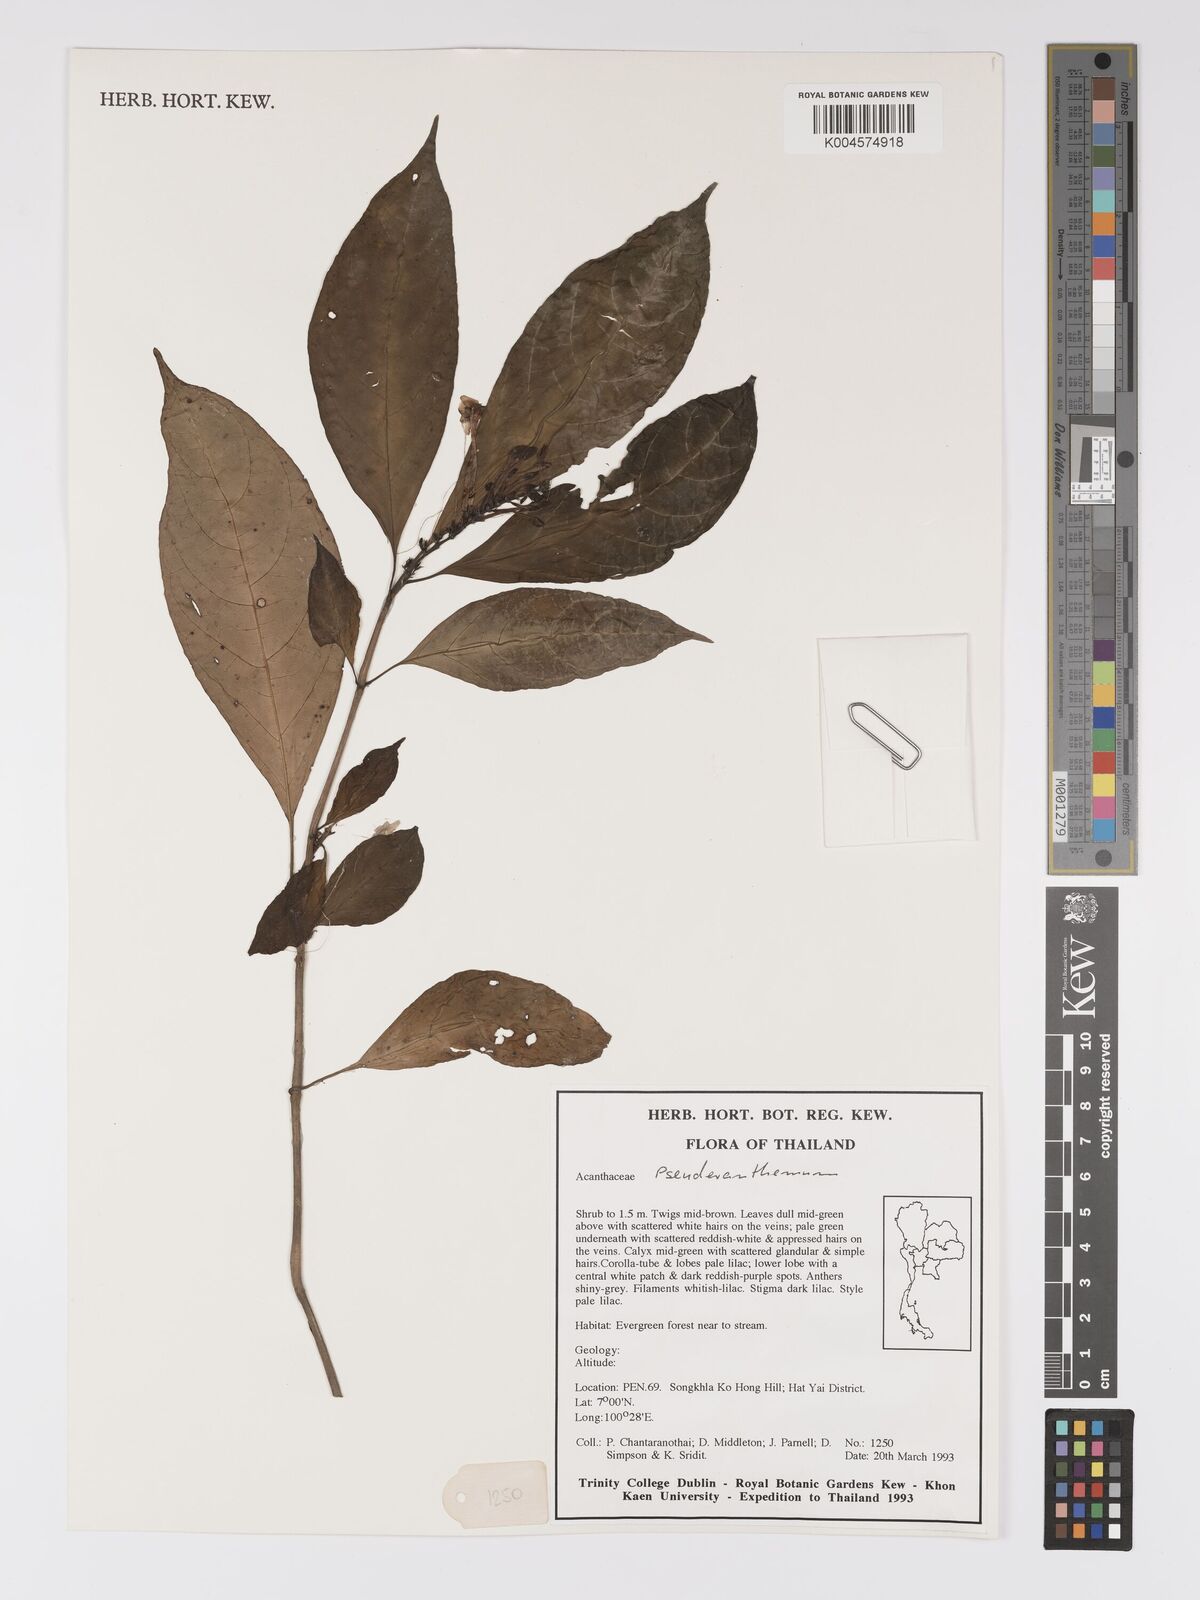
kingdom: Plantae
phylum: Tracheophyta
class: Magnoliopsida
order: Lamiales
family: Acanthaceae
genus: Pseuderanthemum
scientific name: Pseuderanthemum
